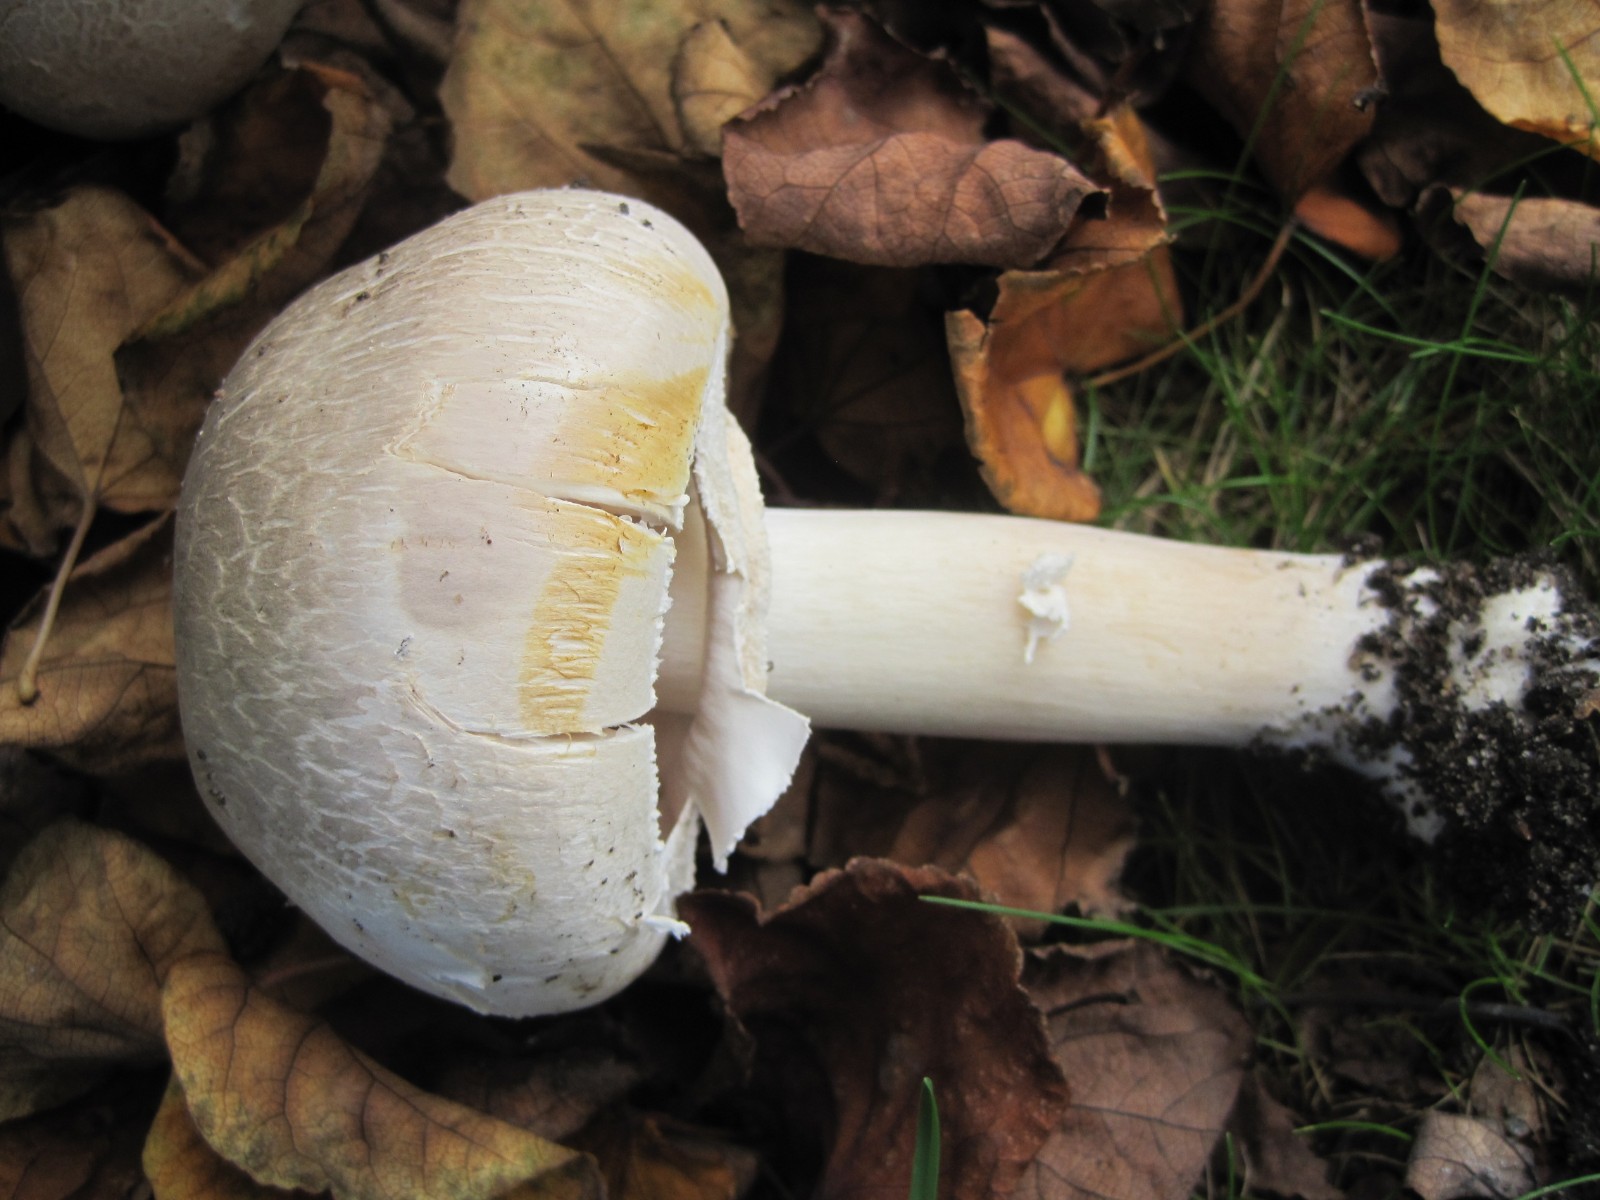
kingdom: Fungi
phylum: Basidiomycota
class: Agaricomycetes
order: Agaricales
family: Agaricaceae
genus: Agaricus
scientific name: Agaricus xanthodermus
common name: karbol-champignon
